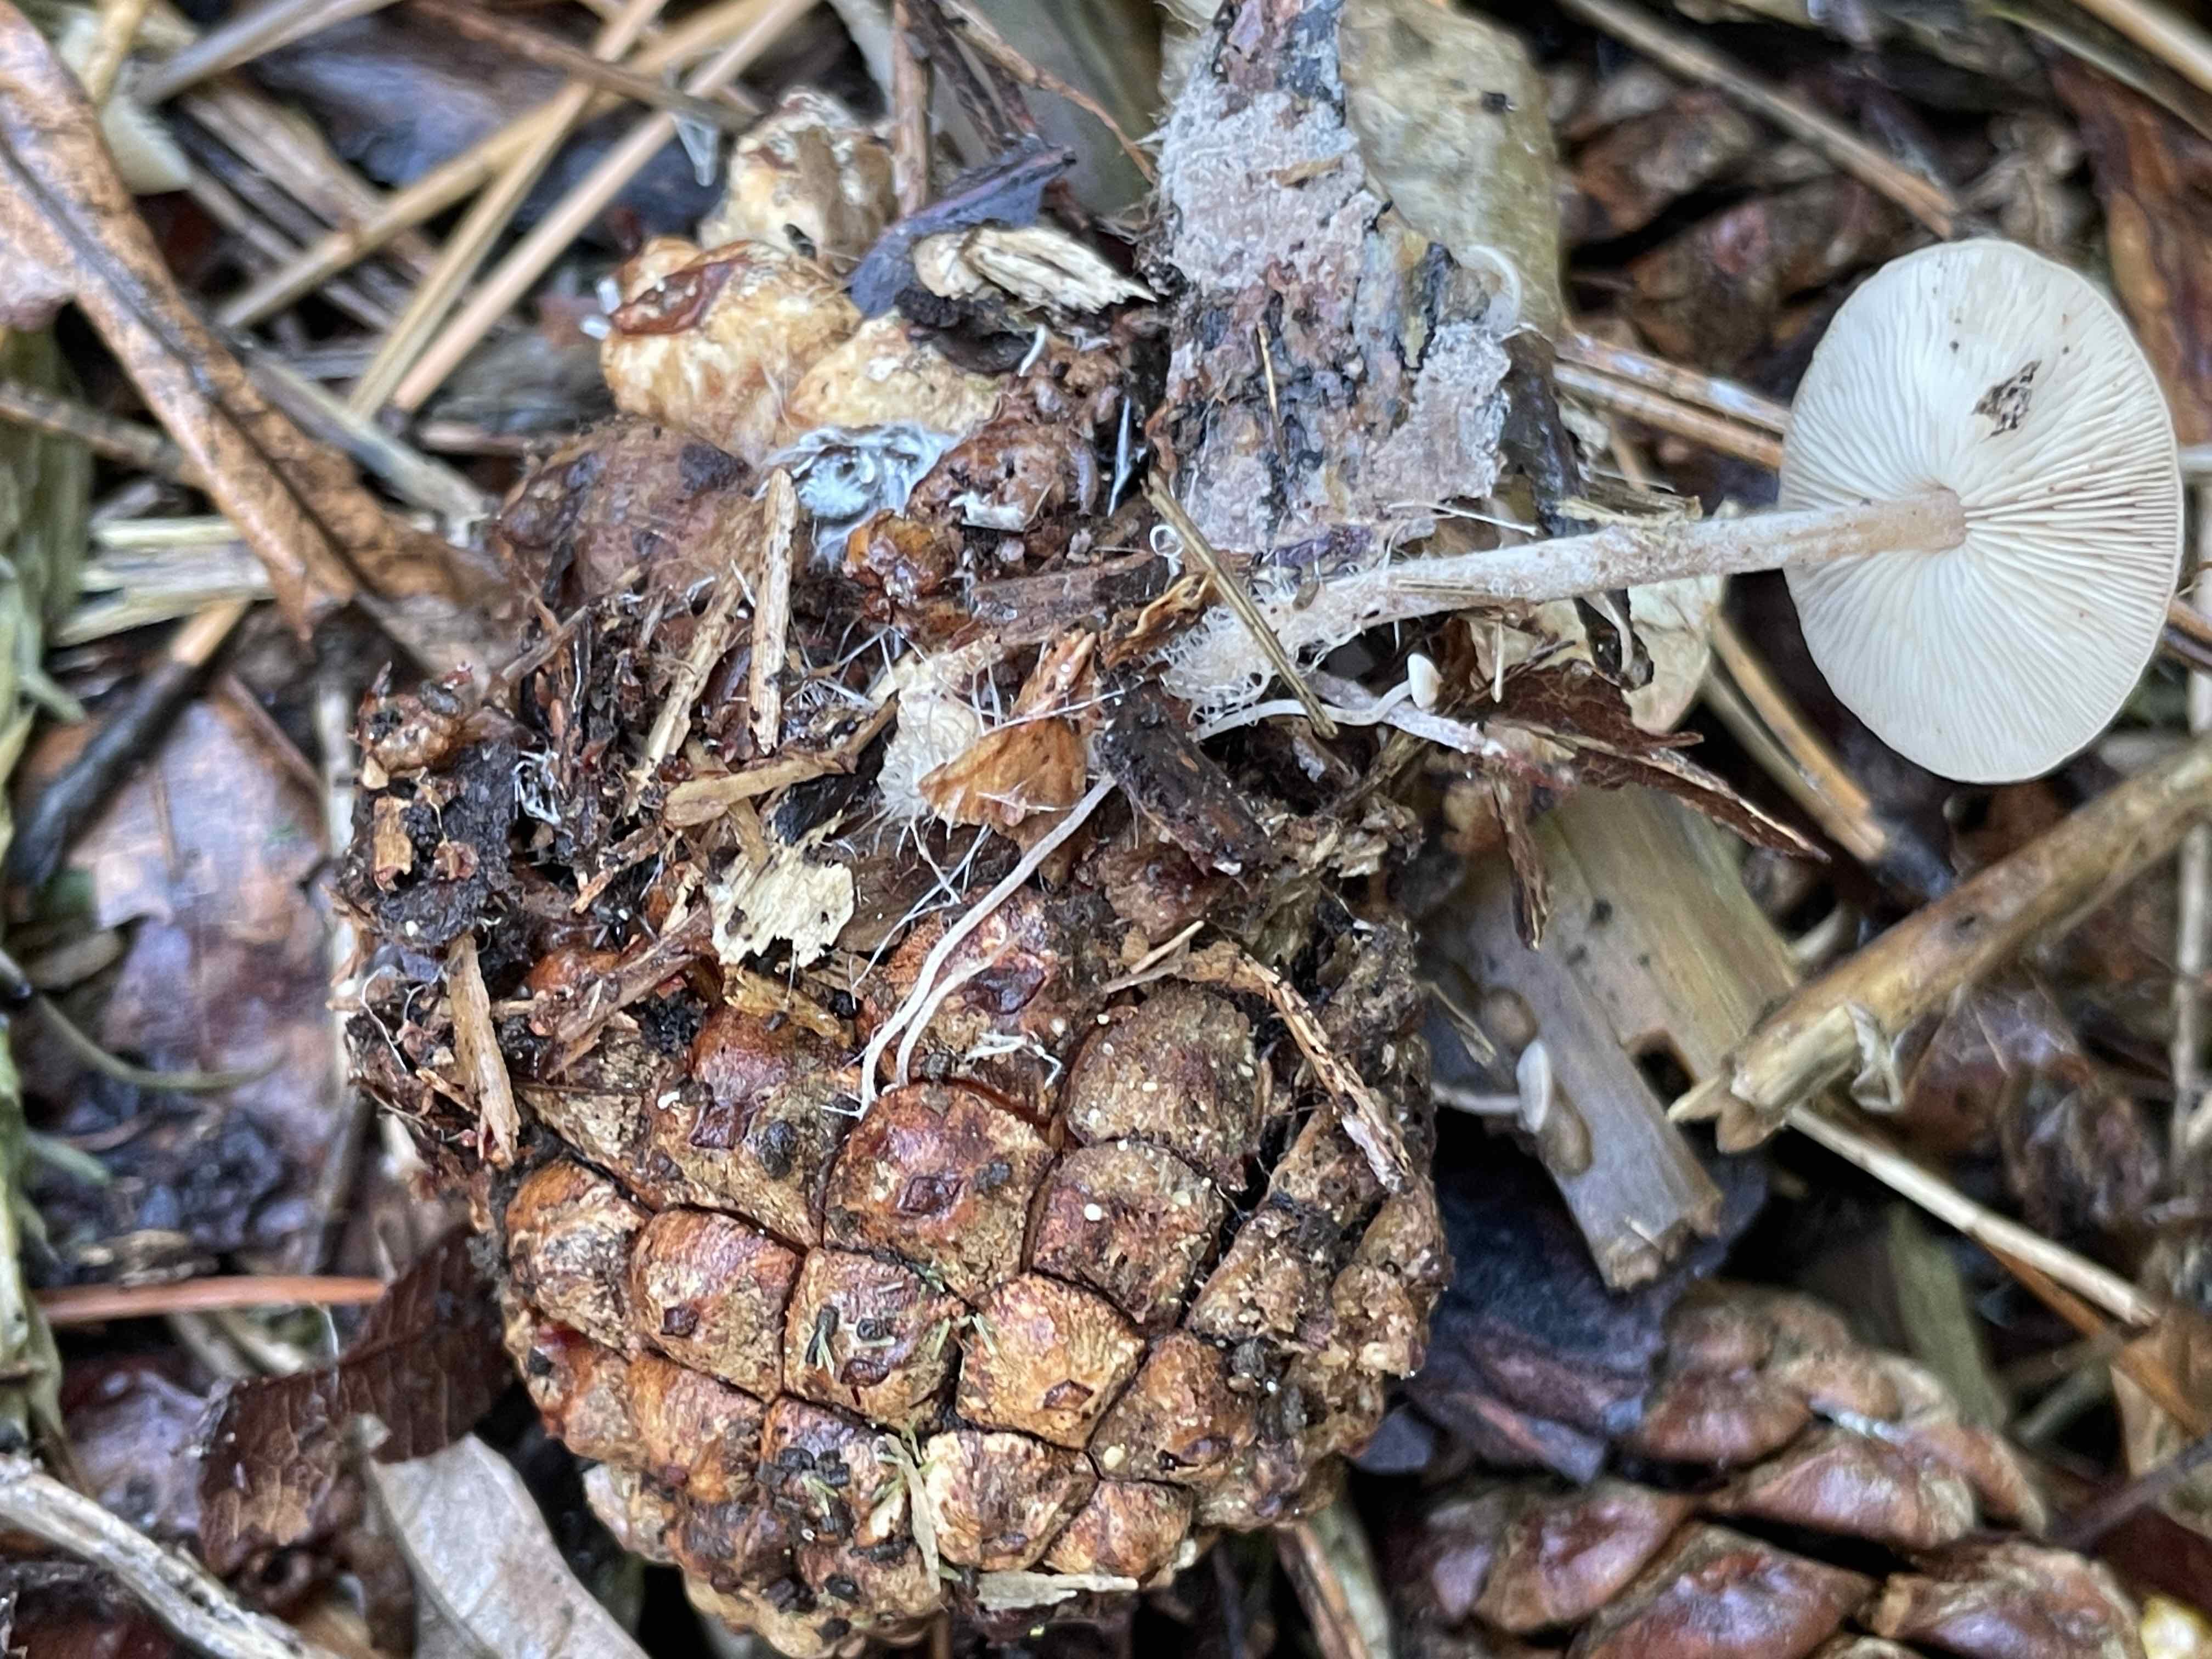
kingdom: Fungi
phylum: Basidiomycota
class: Agaricomycetes
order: Agaricales
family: Marasmiaceae
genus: Baeospora
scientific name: Baeospora myosura
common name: koglebruskhat
